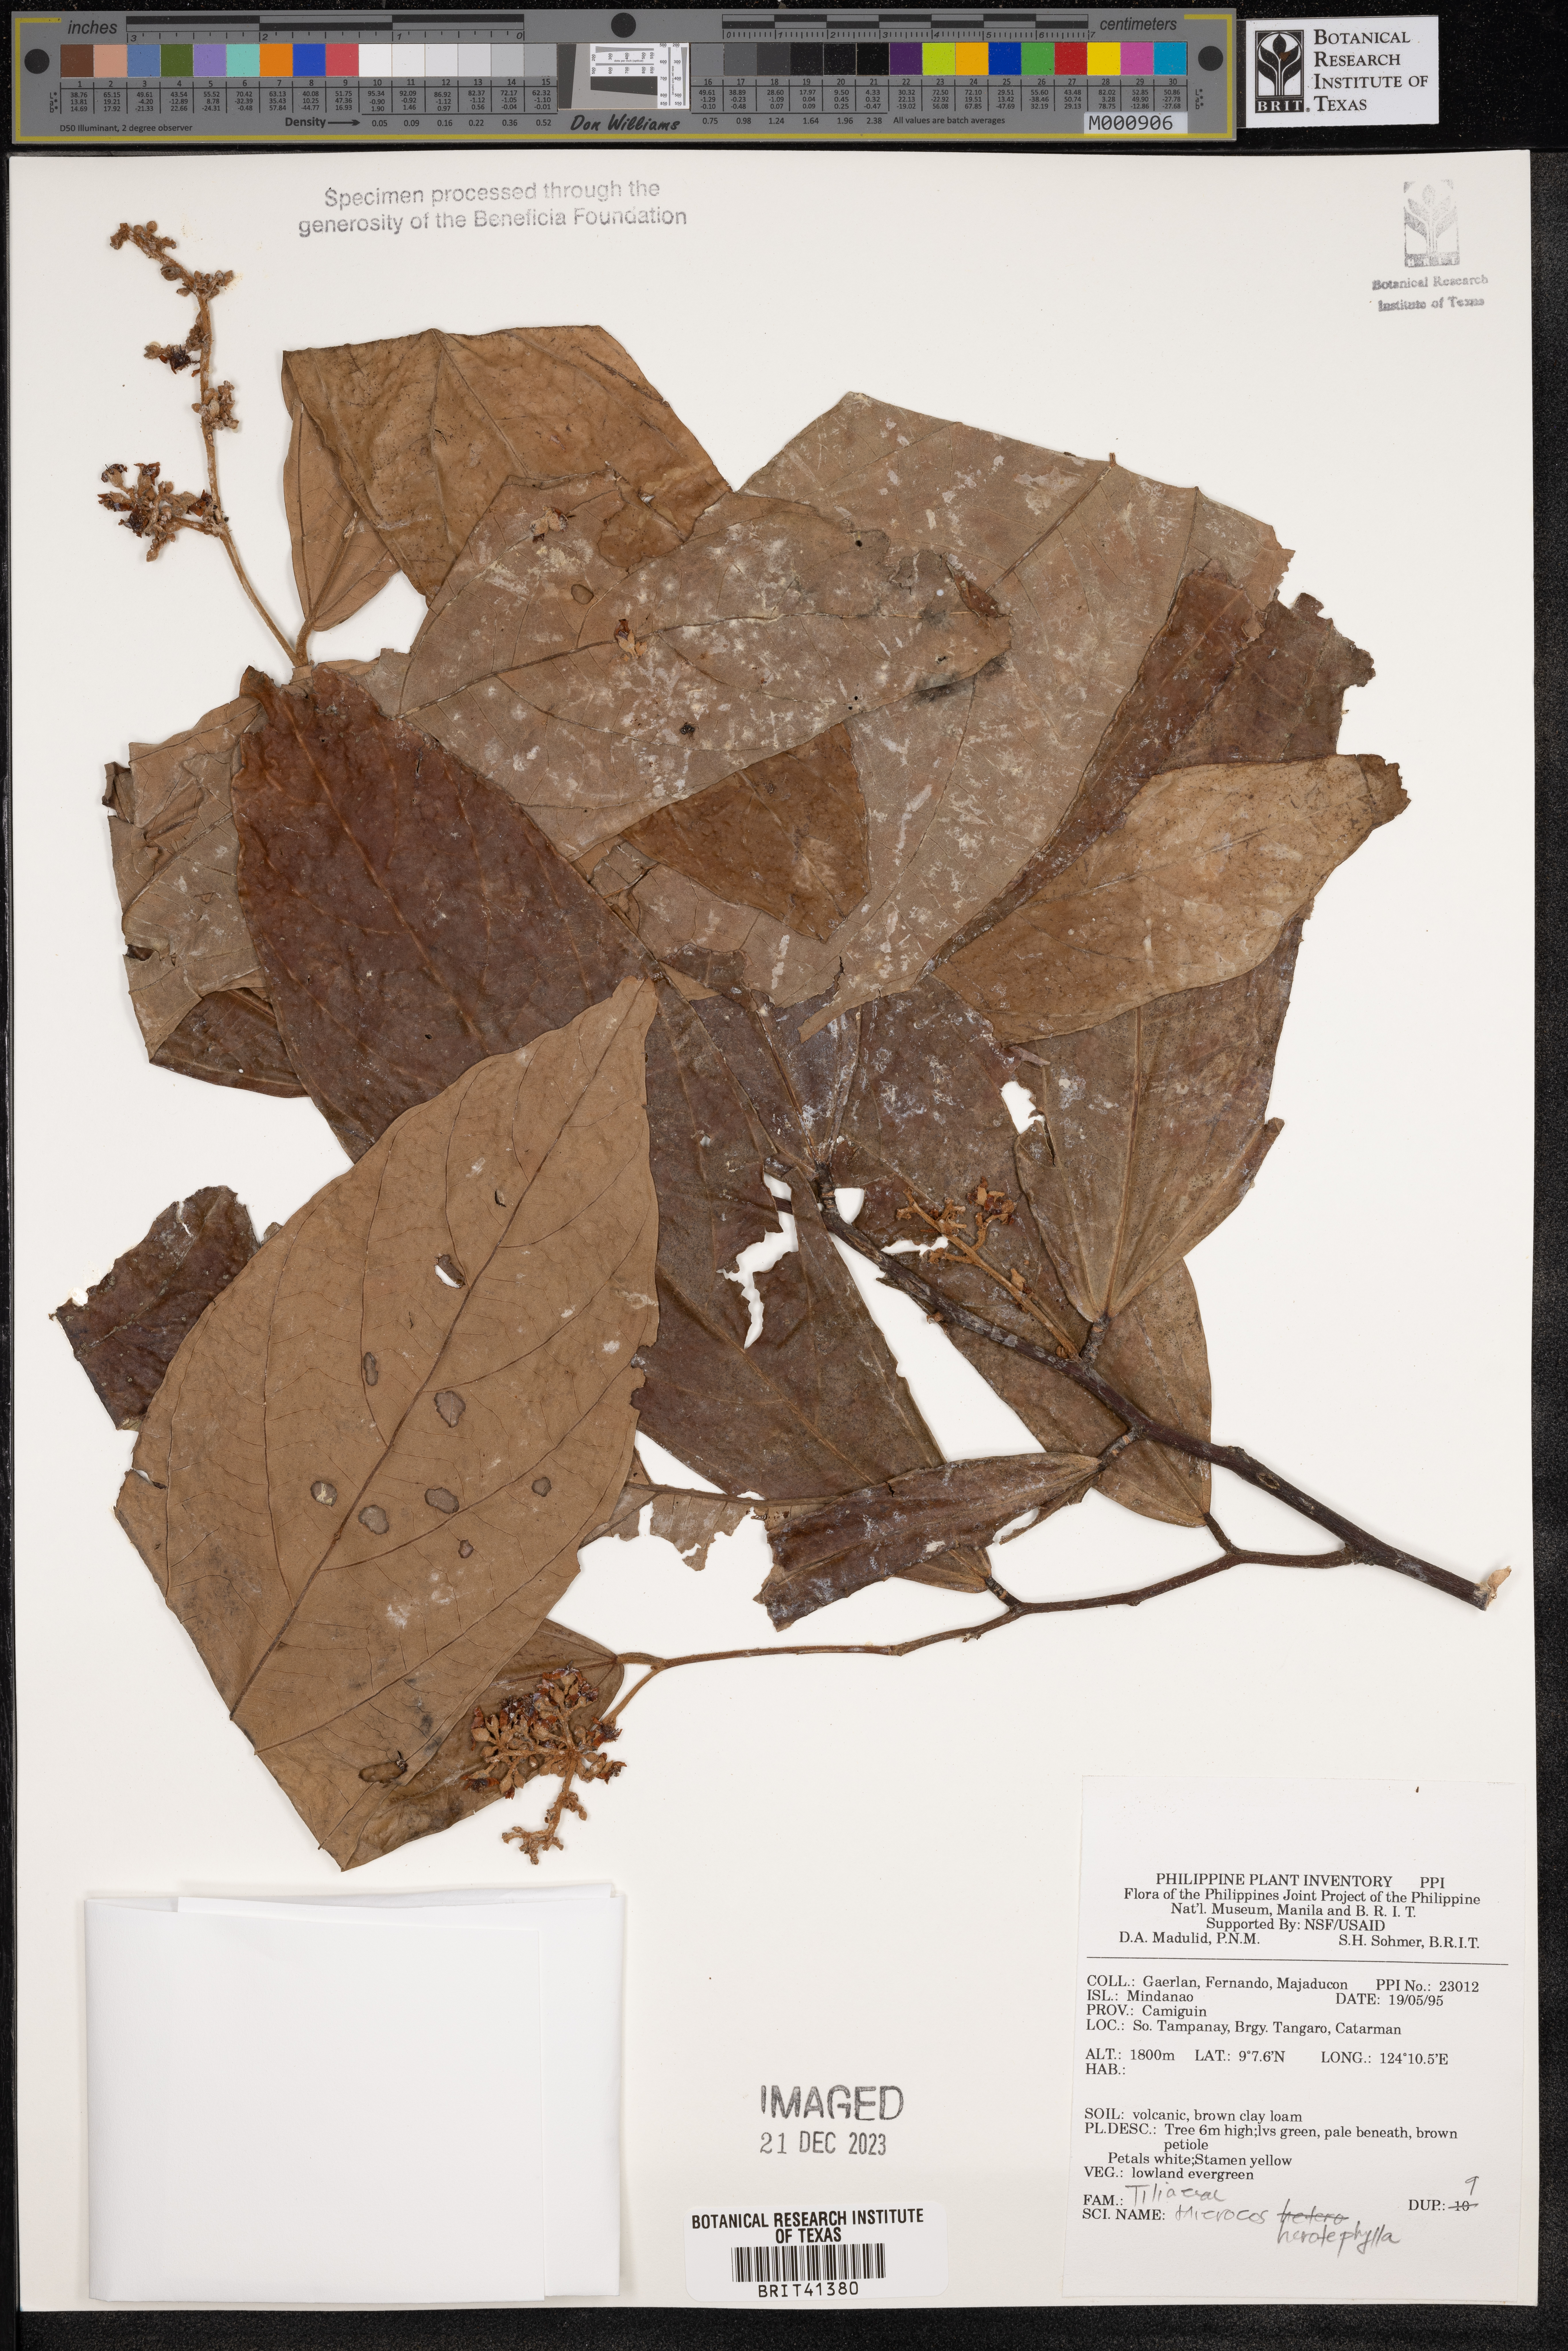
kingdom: Plantae
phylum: Tracheophyta
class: Magnoliopsida
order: Malvales
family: Malvaceae
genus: Microcos
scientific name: Microcos
